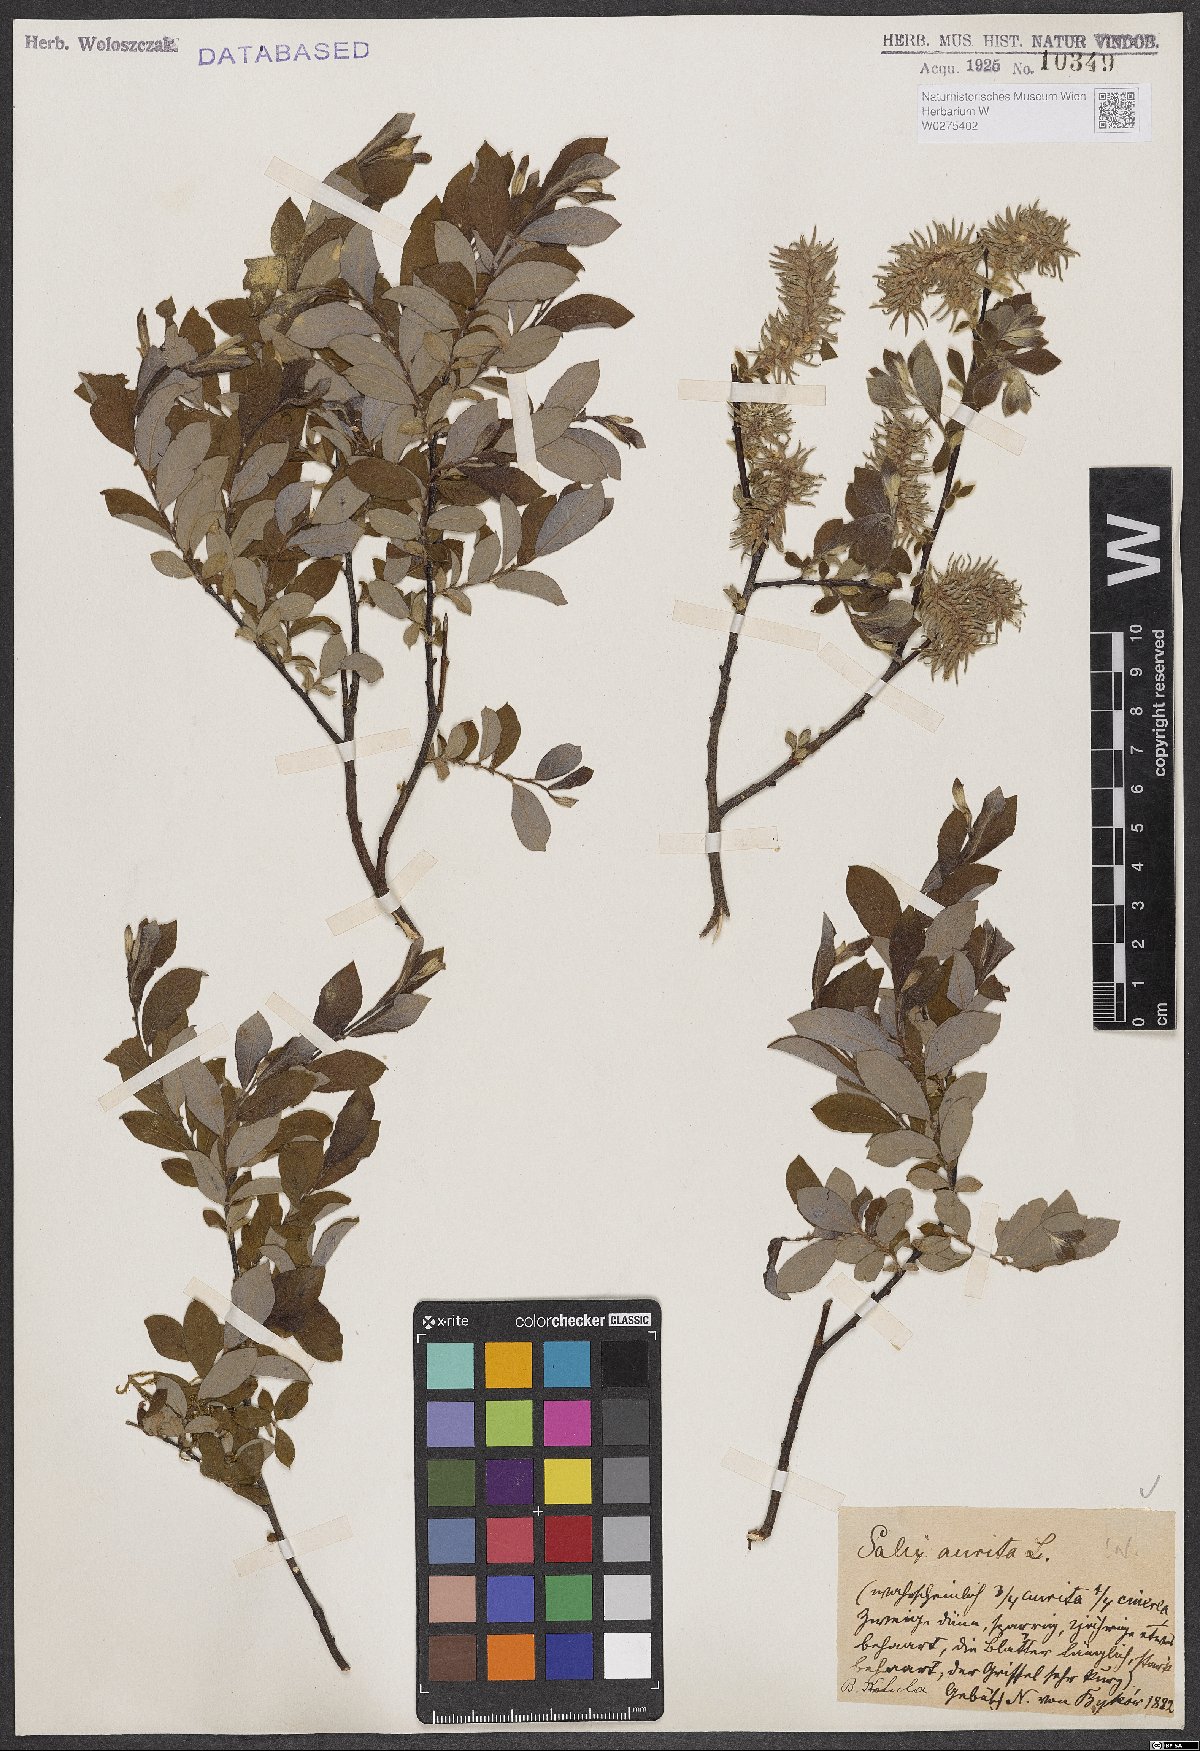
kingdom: Plantae
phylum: Tracheophyta
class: Magnoliopsida
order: Malpighiales
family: Salicaceae
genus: Salix
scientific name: Salix aurita
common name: Eared willow
